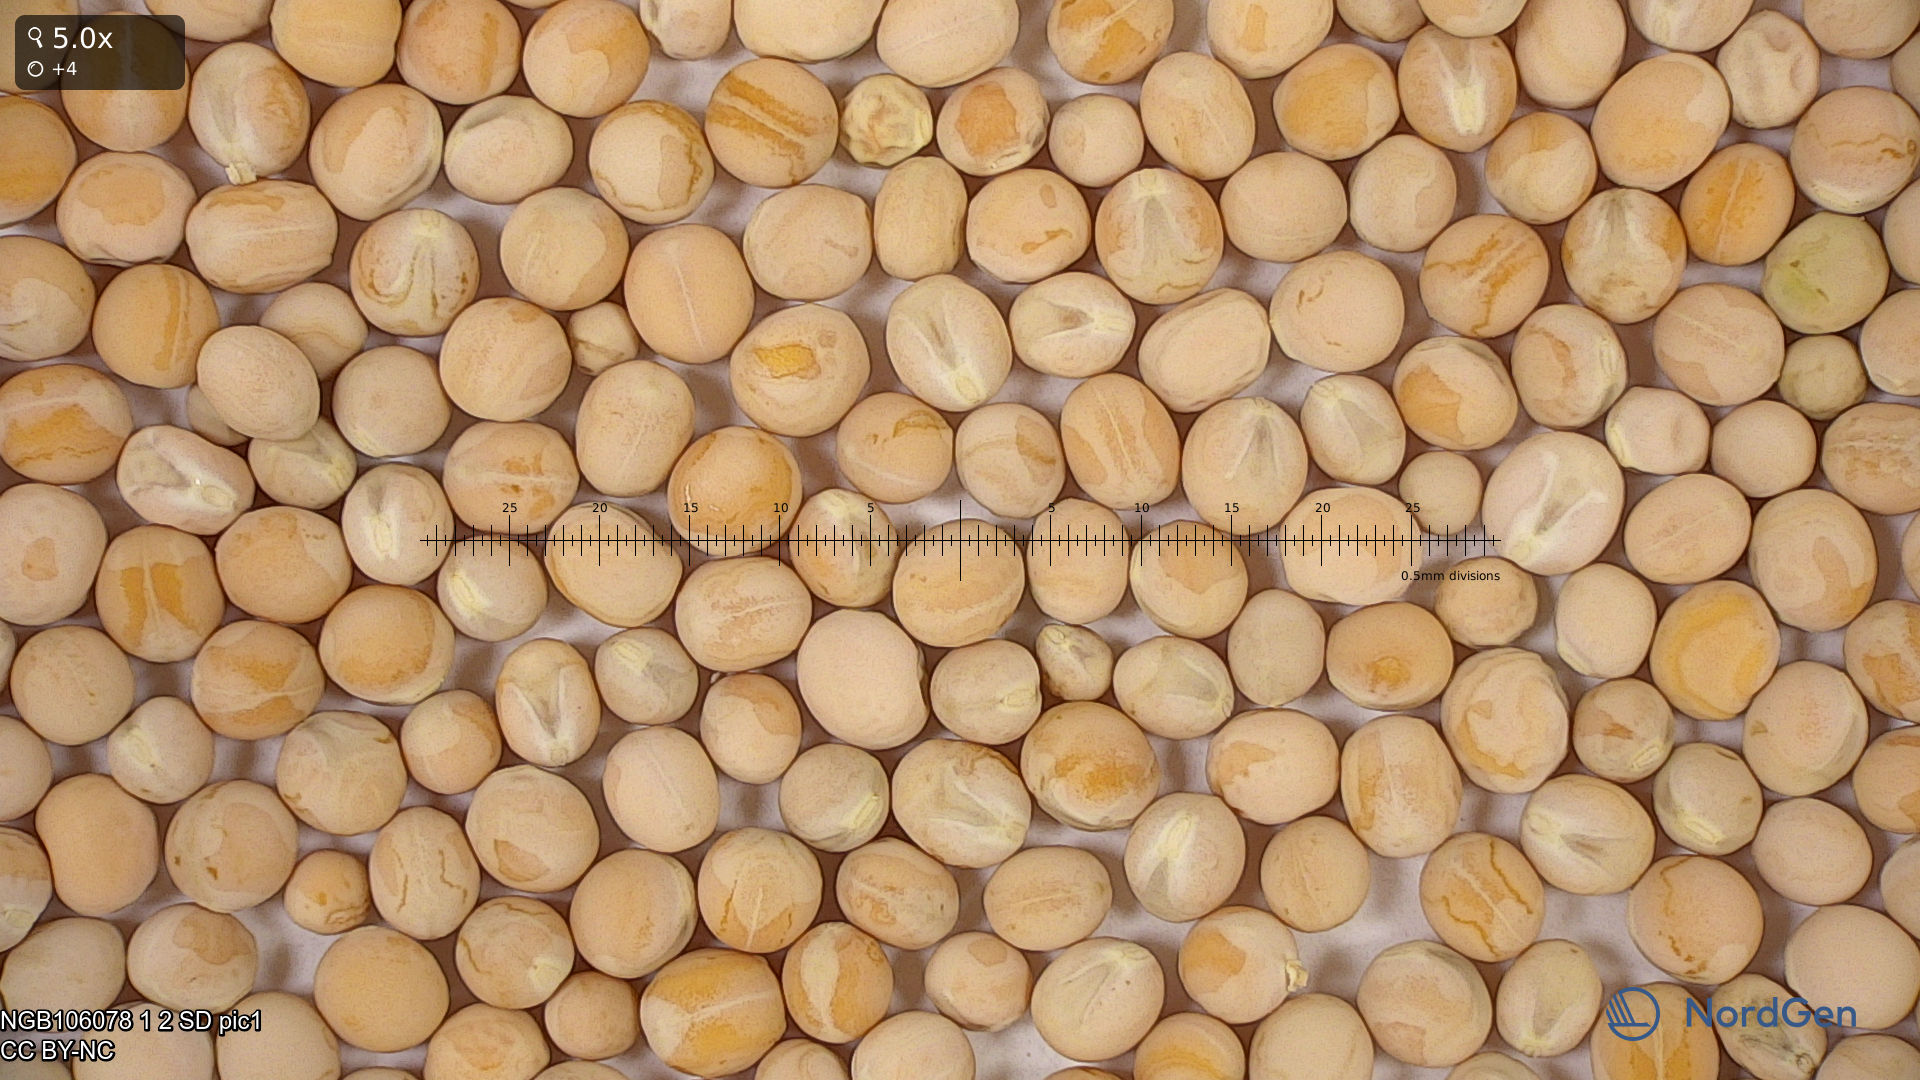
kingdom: Plantae
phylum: Tracheophyta
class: Magnoliopsida
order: Fabales
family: Fabaceae
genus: Lathyrus
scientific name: Lathyrus oleraceus
